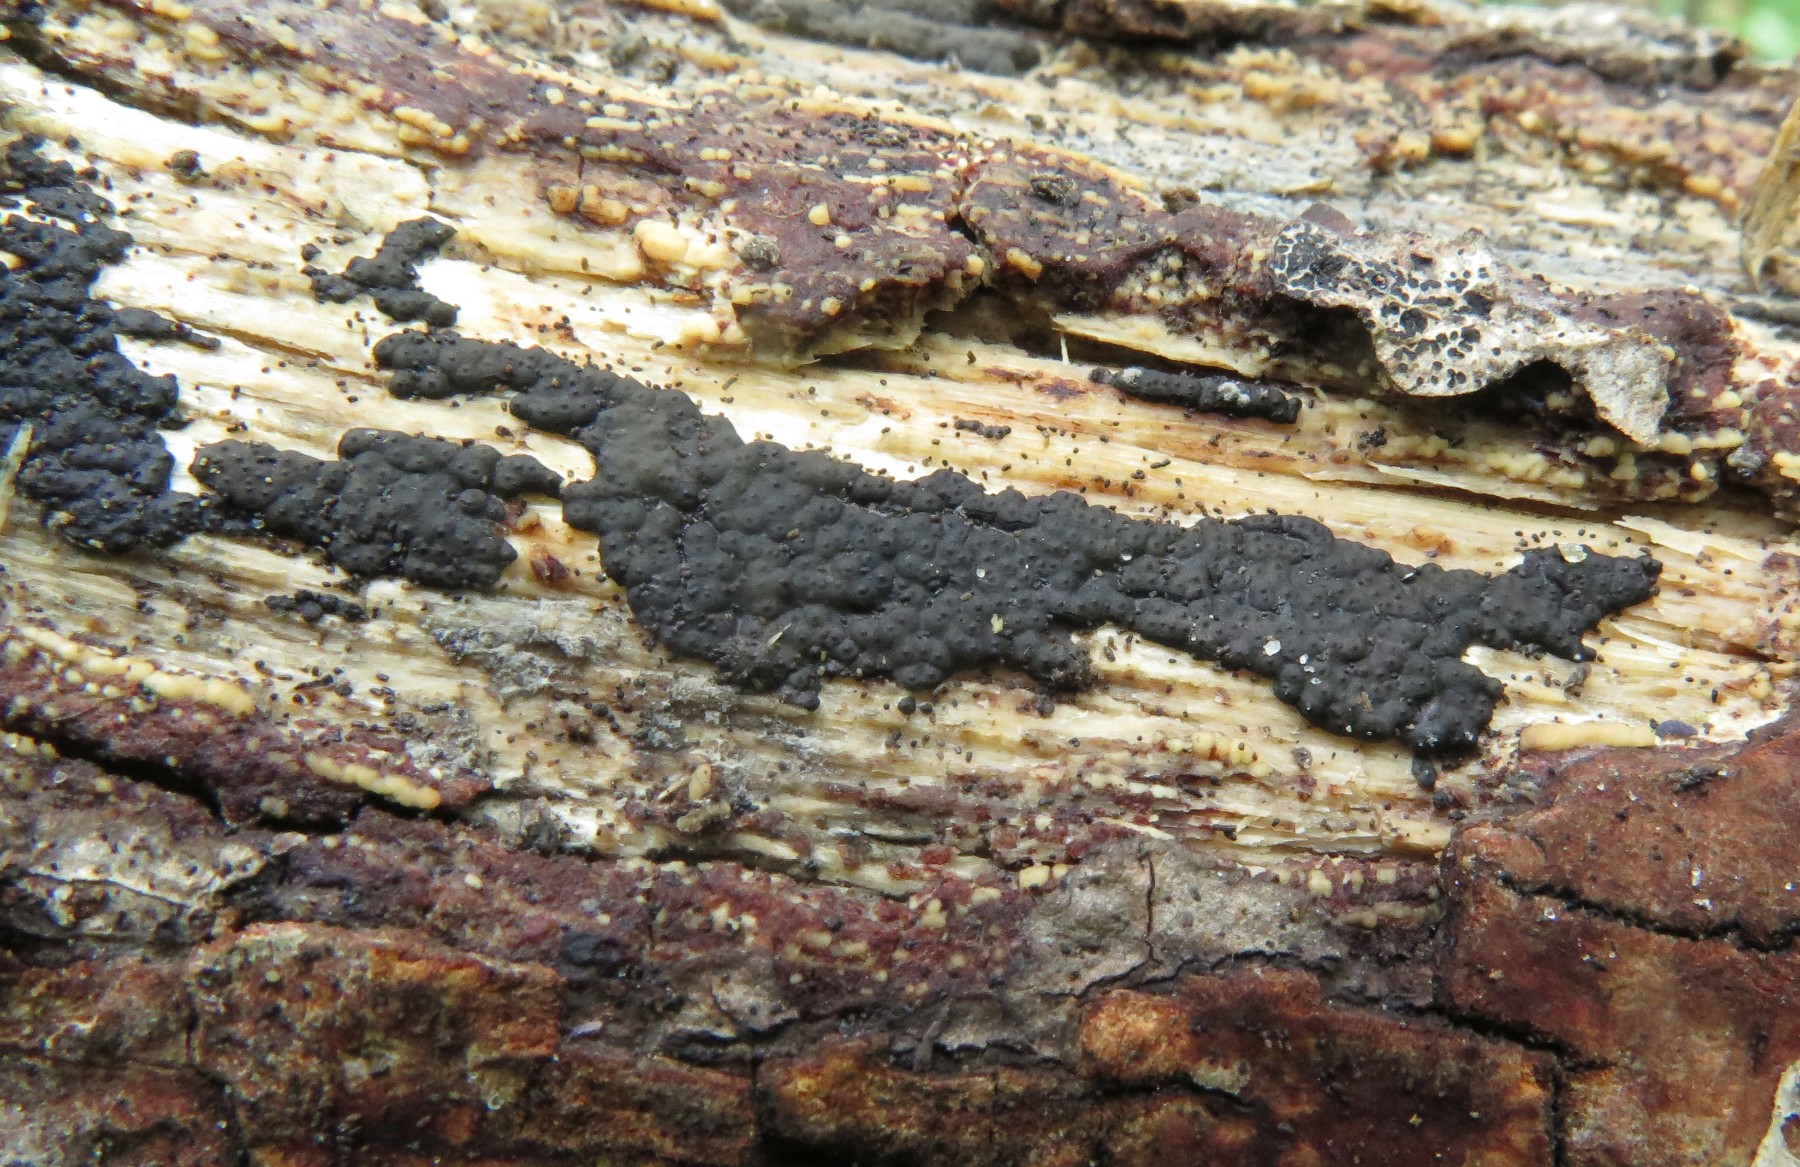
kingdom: Fungi
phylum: Ascomycota
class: Sordariomycetes
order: Xylariales
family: Xylariaceae
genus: Nemania
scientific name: Nemania serpens
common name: almindelig kuldyne
